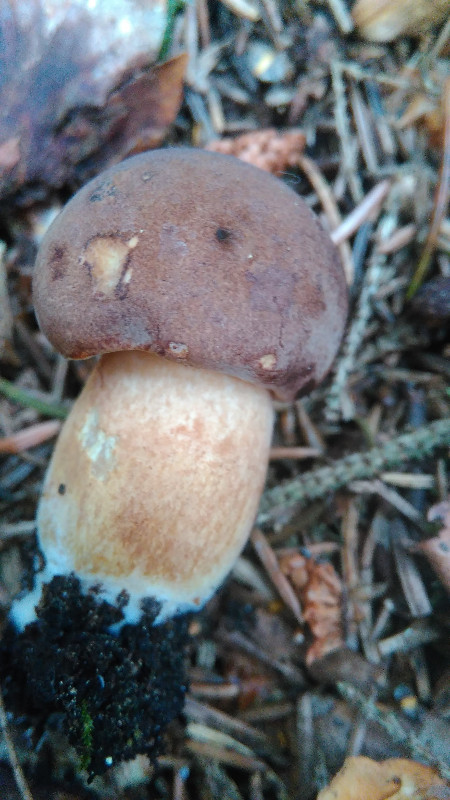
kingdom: Fungi
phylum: Basidiomycota
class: Agaricomycetes
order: Boletales
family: Boletaceae
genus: Imleria
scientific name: Imleria badia
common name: brunstokket rørhat
